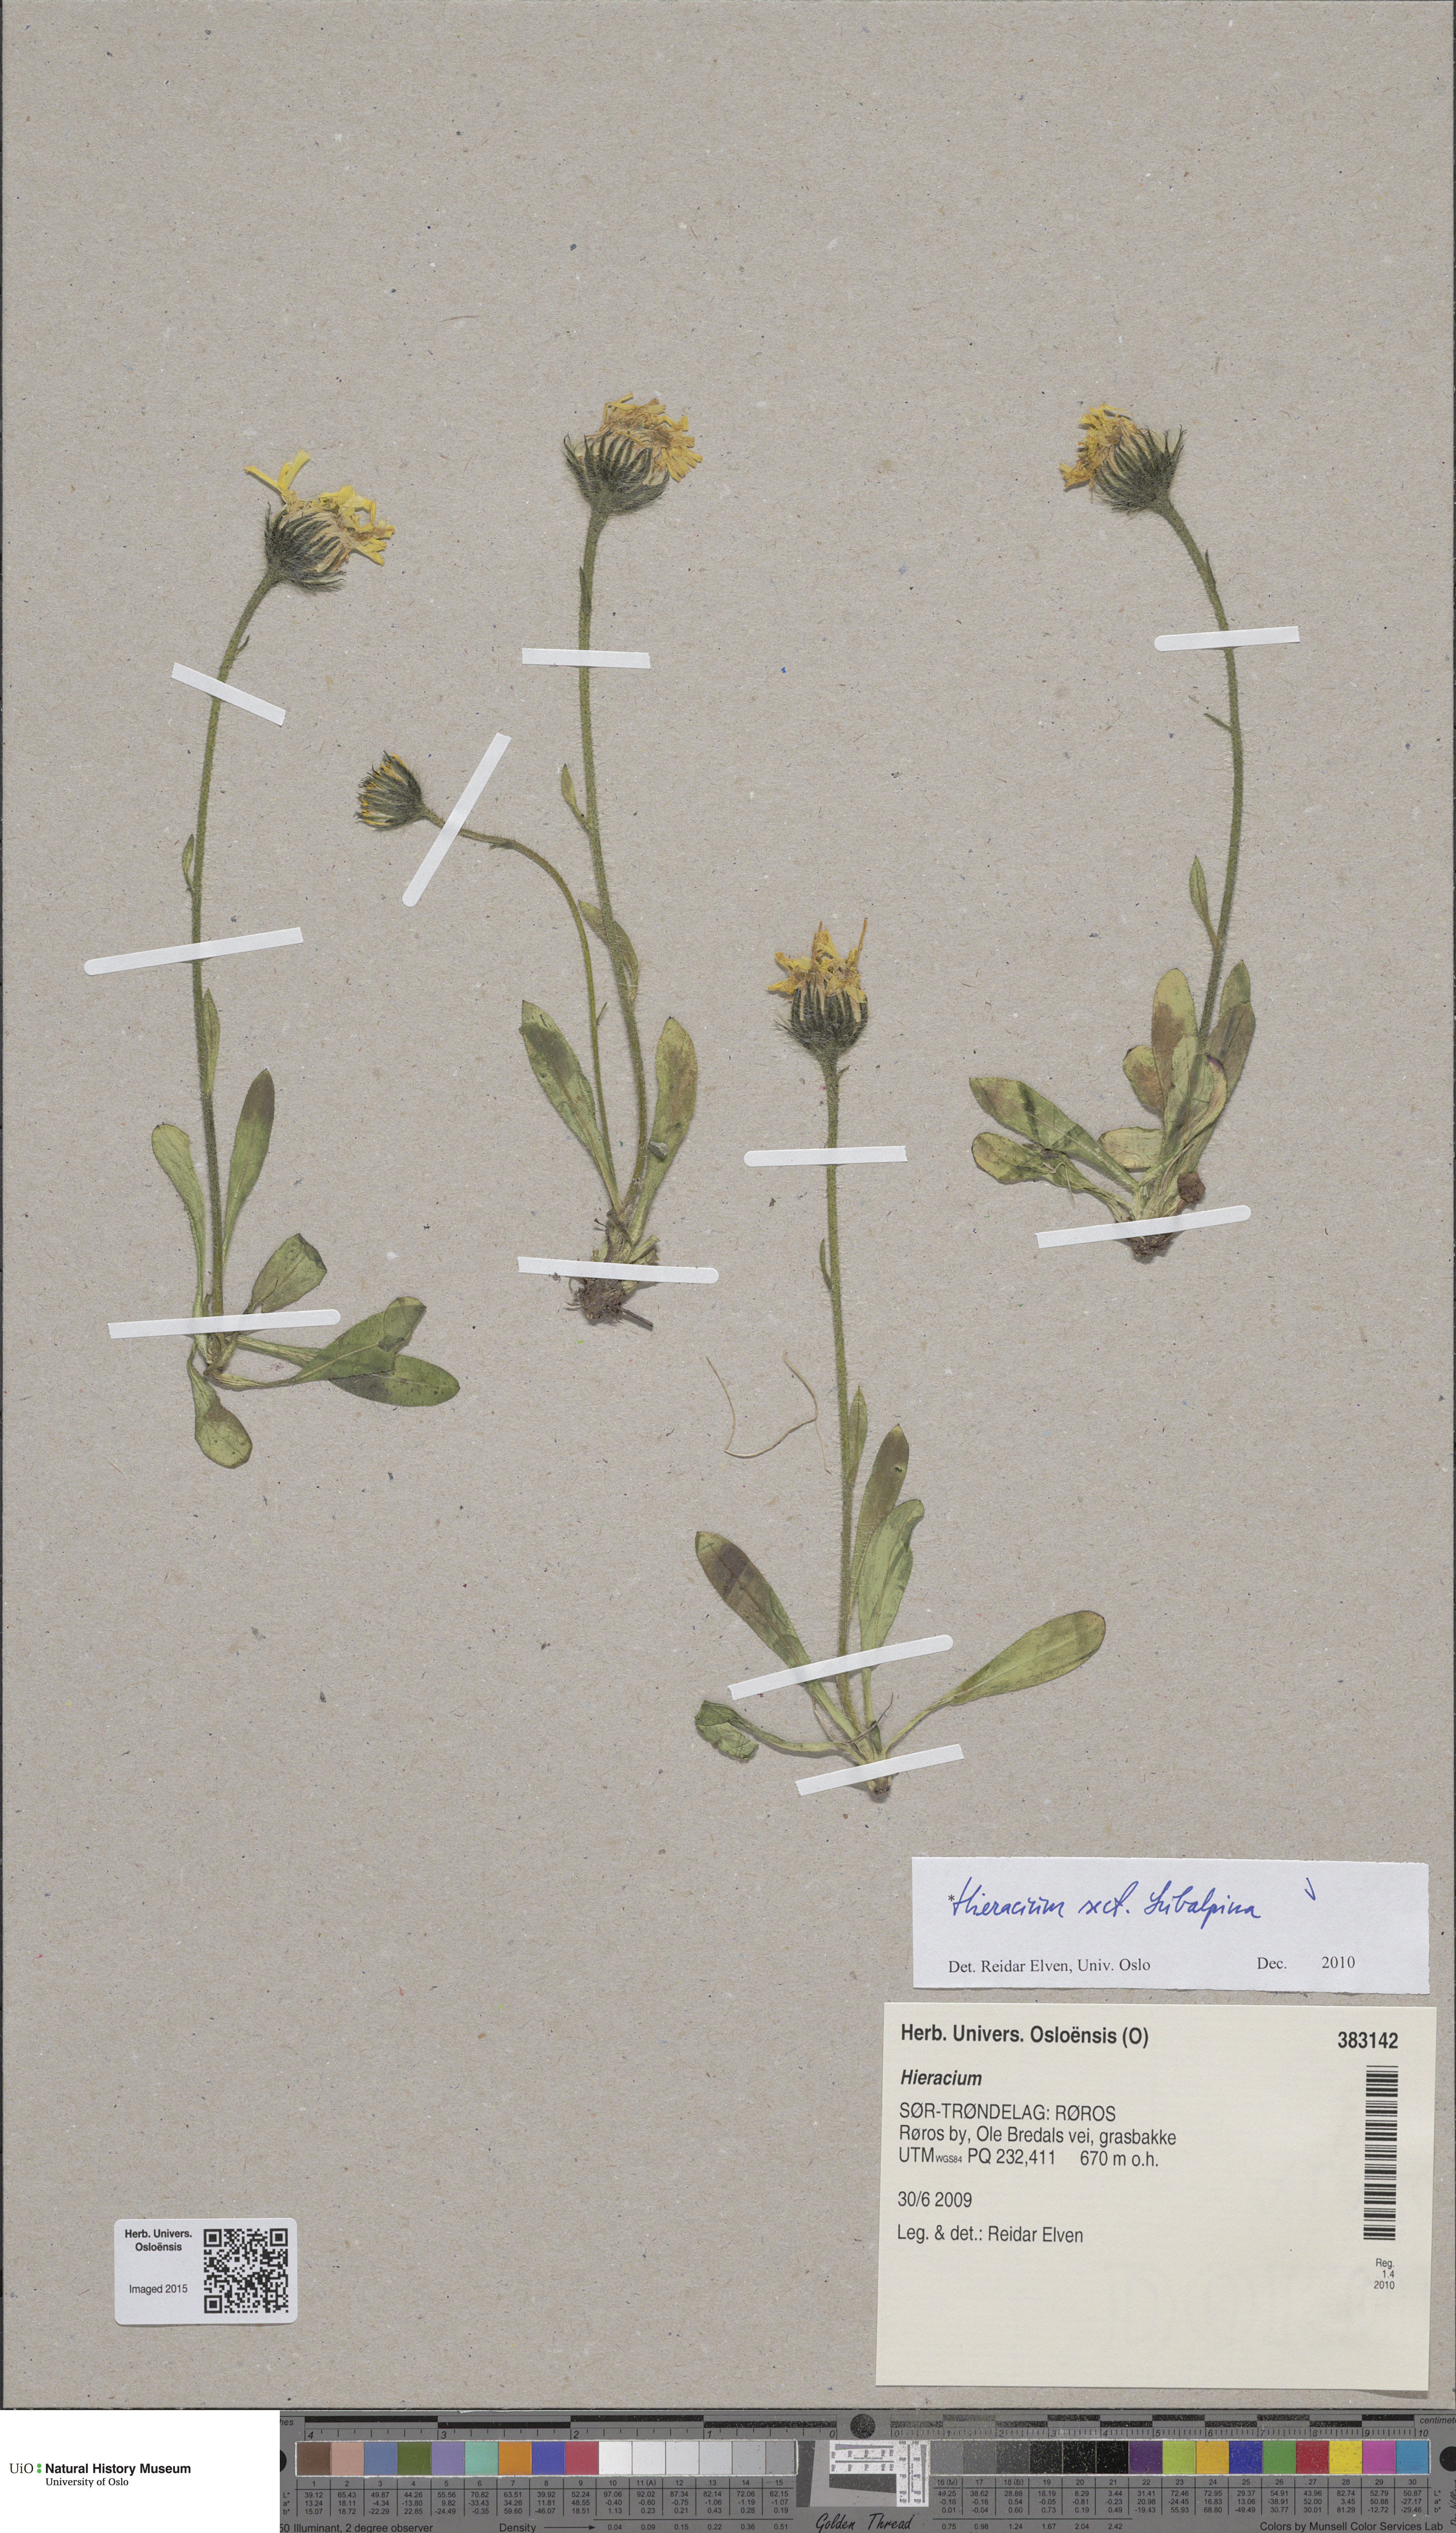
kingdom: Plantae
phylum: Tracheophyta
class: Magnoliopsida
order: Asterales
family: Asteraceae
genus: Hieracium
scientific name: Hieracium umbrosum
